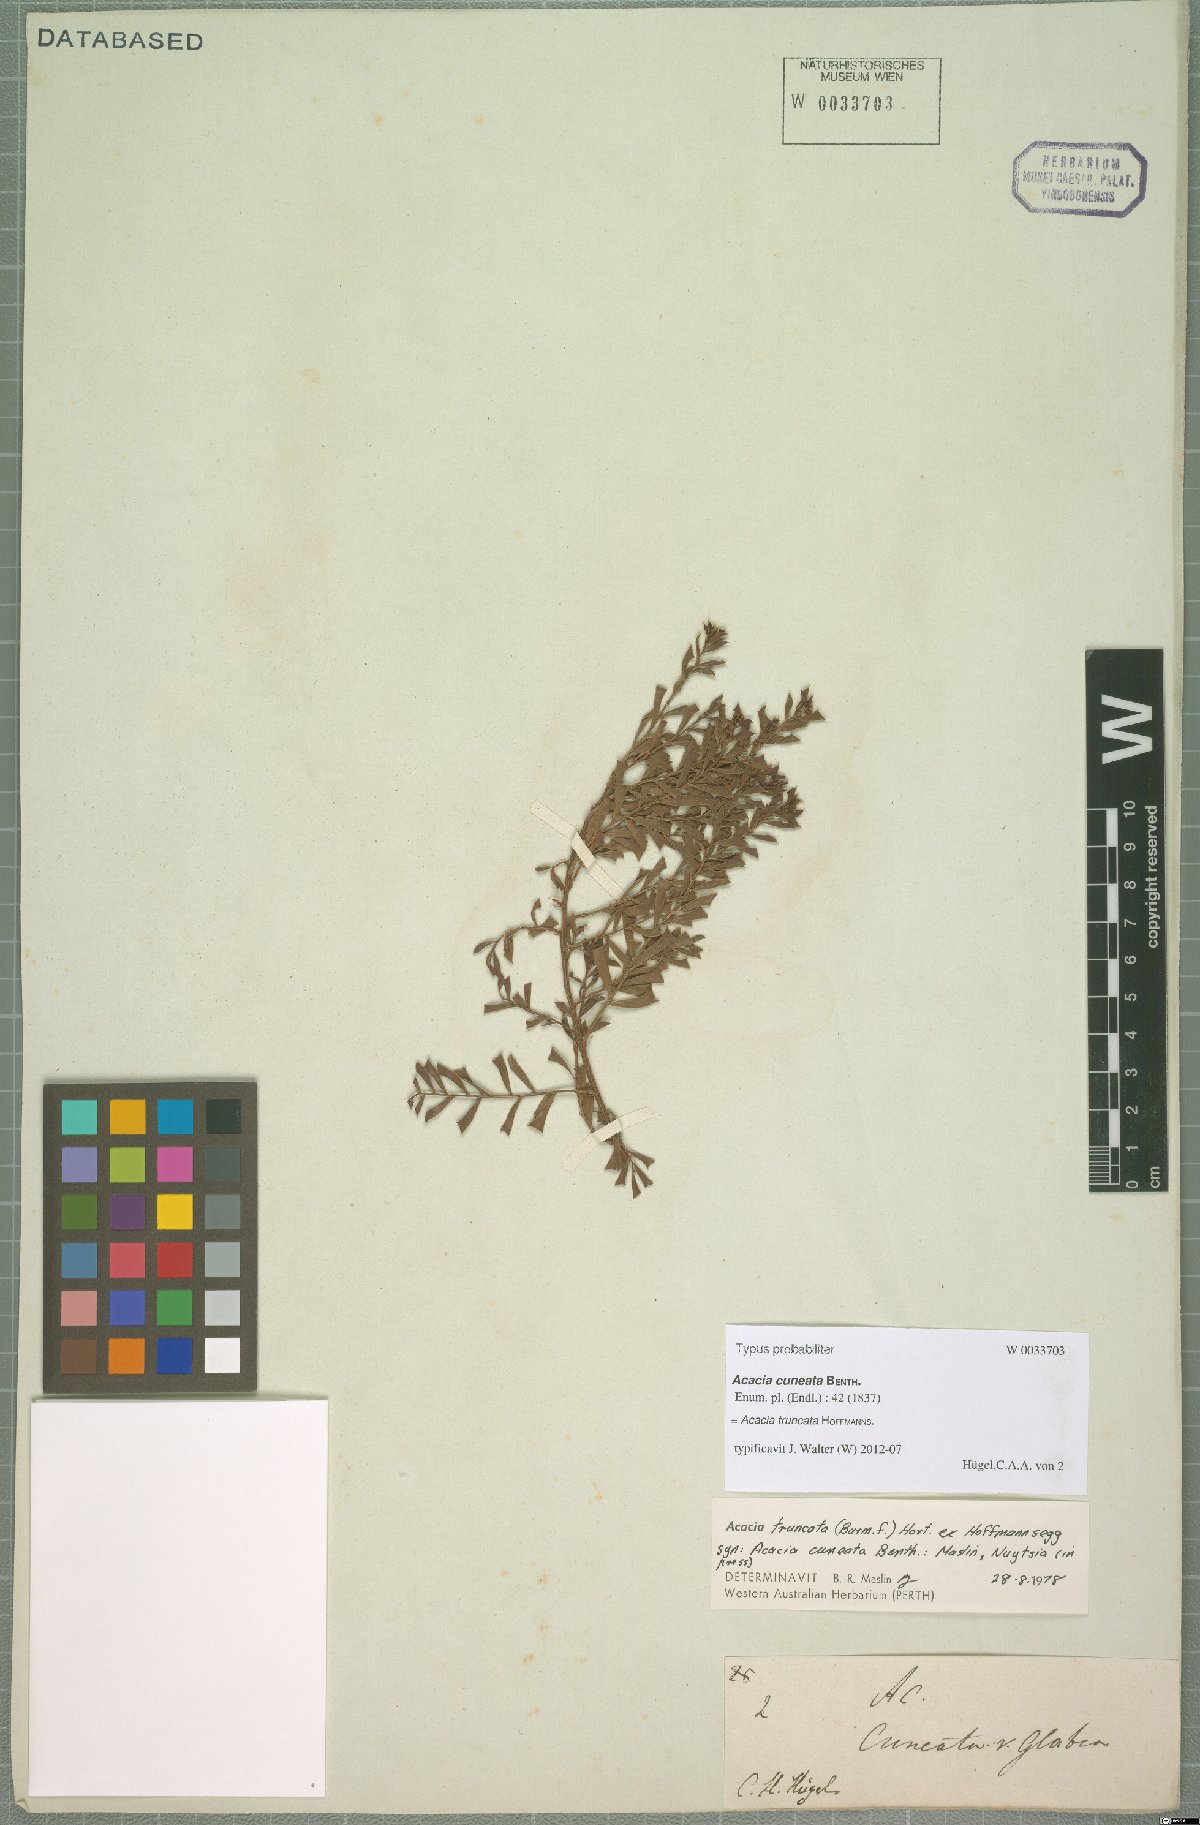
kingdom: Plantae
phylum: Tracheophyta
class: Magnoliopsida
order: Fabales
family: Fabaceae
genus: Acacia
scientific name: Acacia truncata
